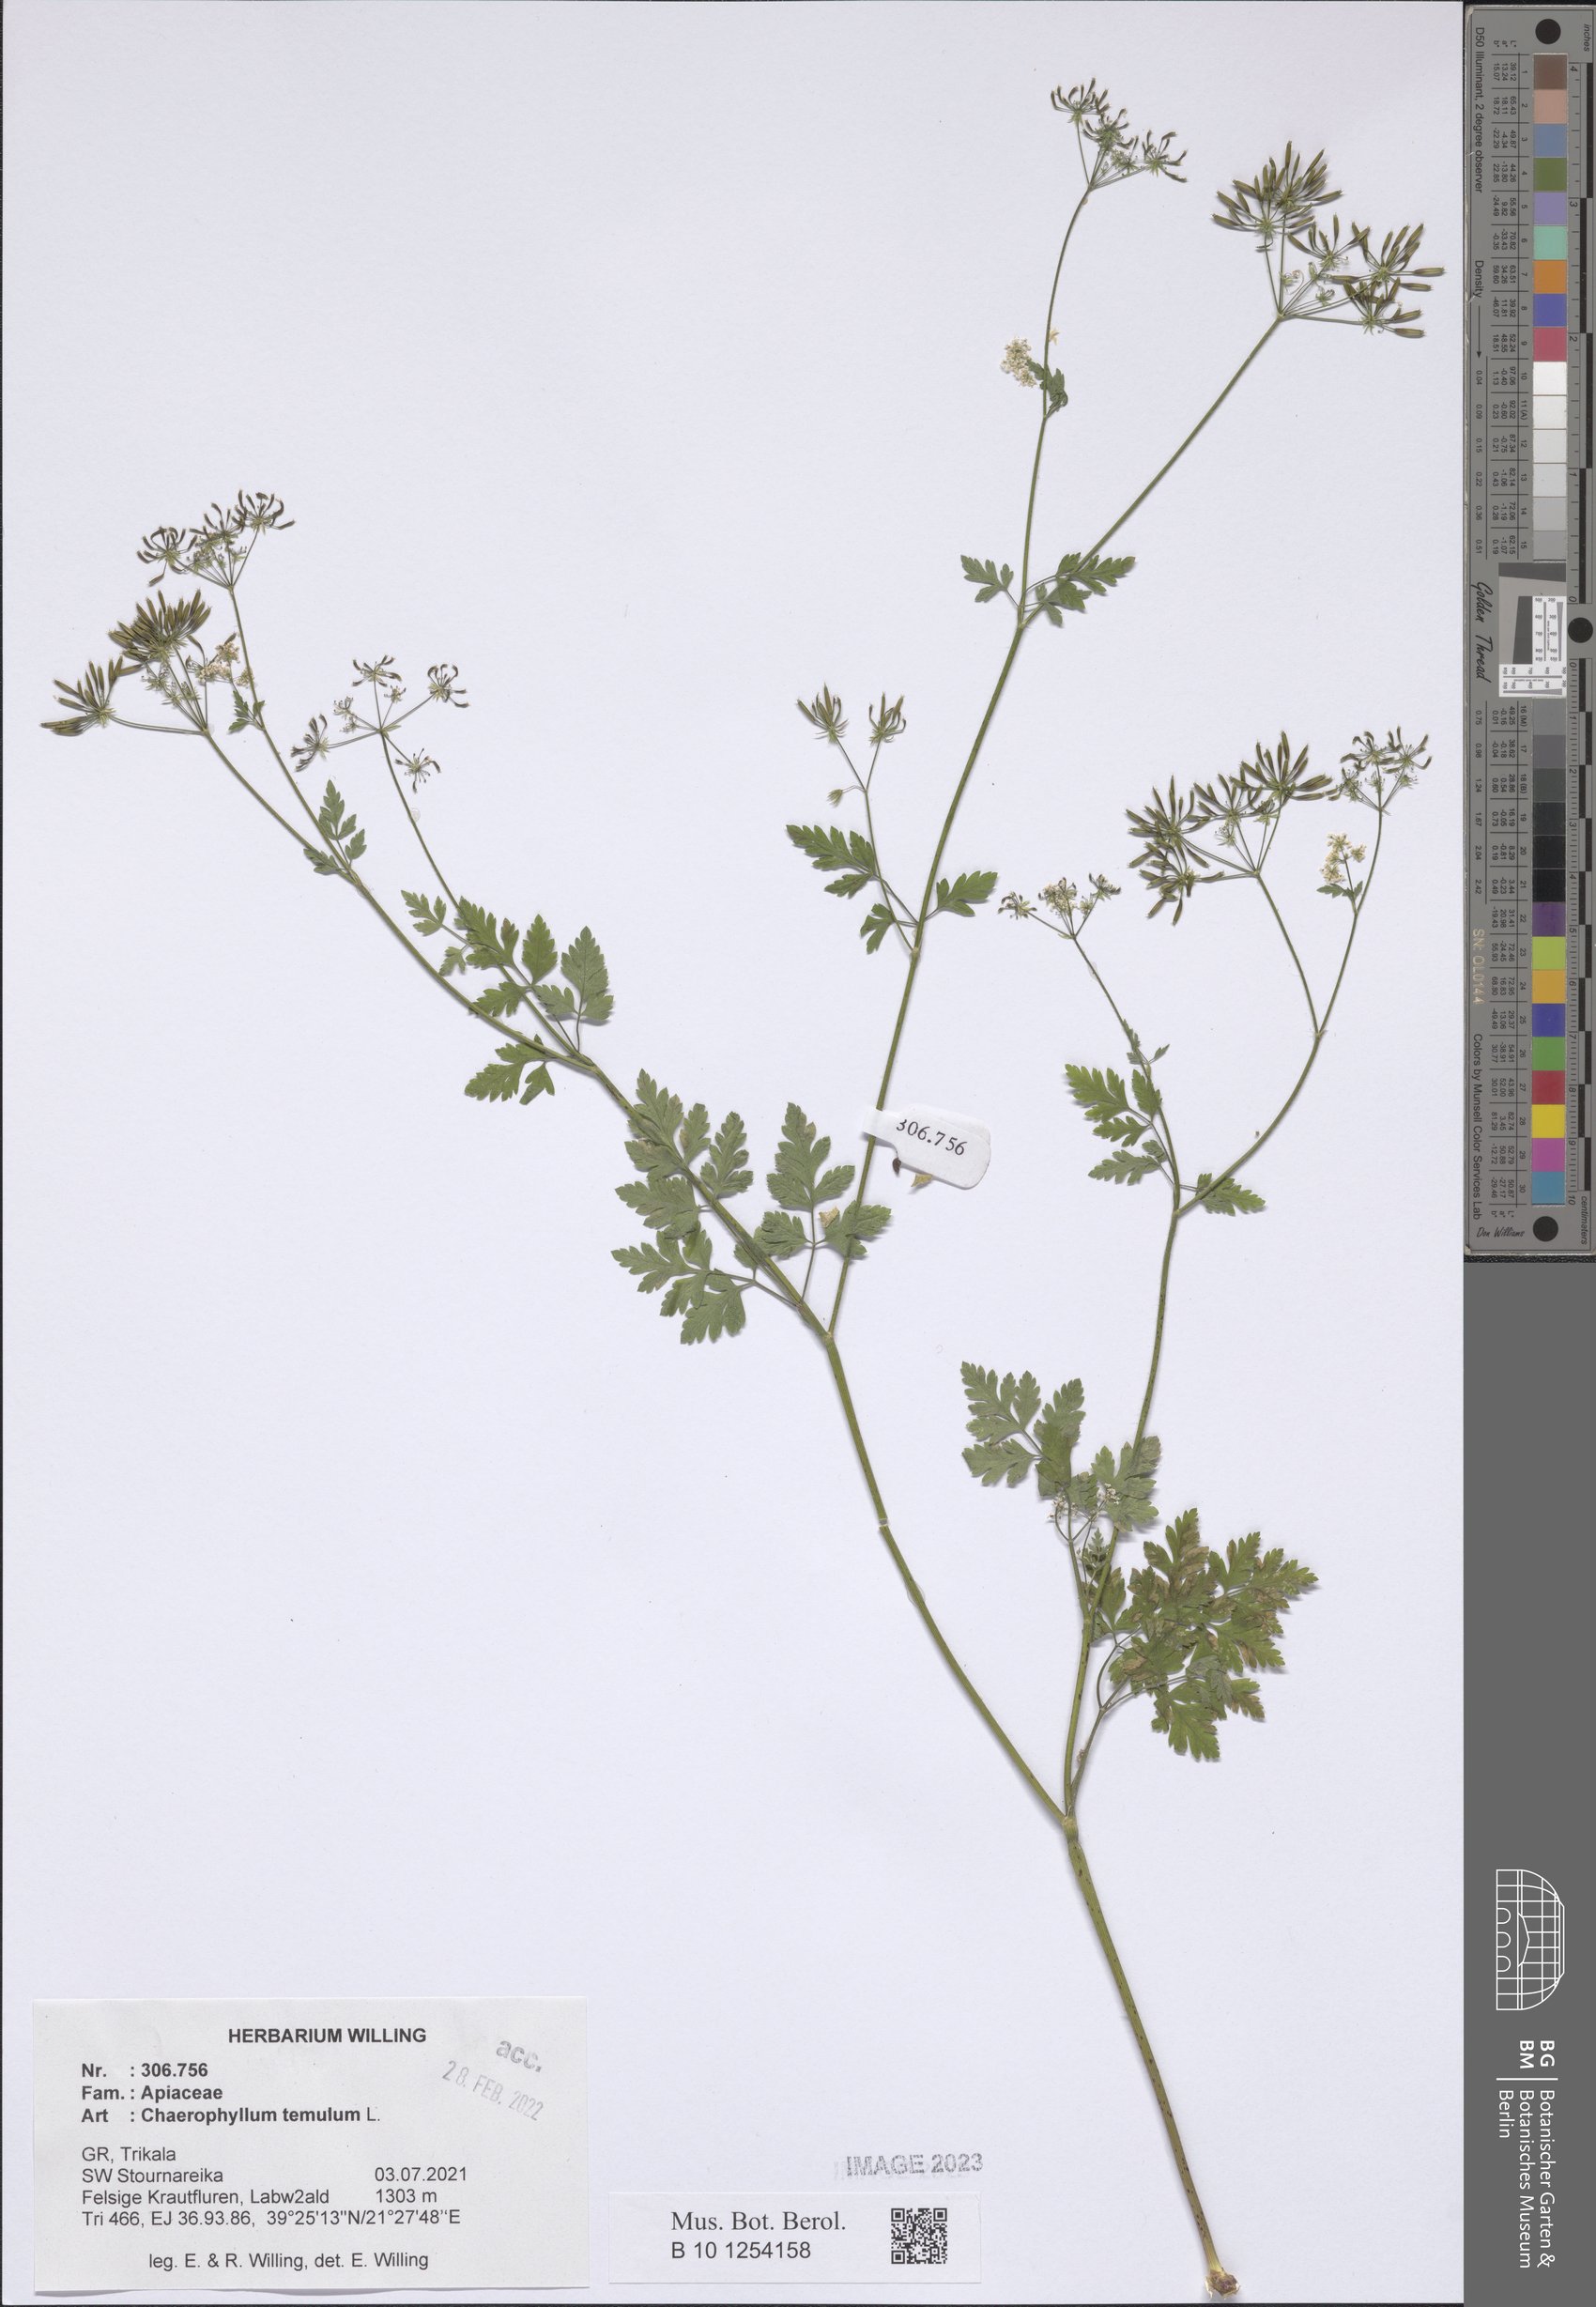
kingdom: Plantae
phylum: Tracheophyta
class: Magnoliopsida
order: Apiales
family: Apiaceae
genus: Chaerophyllum
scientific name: Chaerophyllum temulum
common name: Rough chervil
